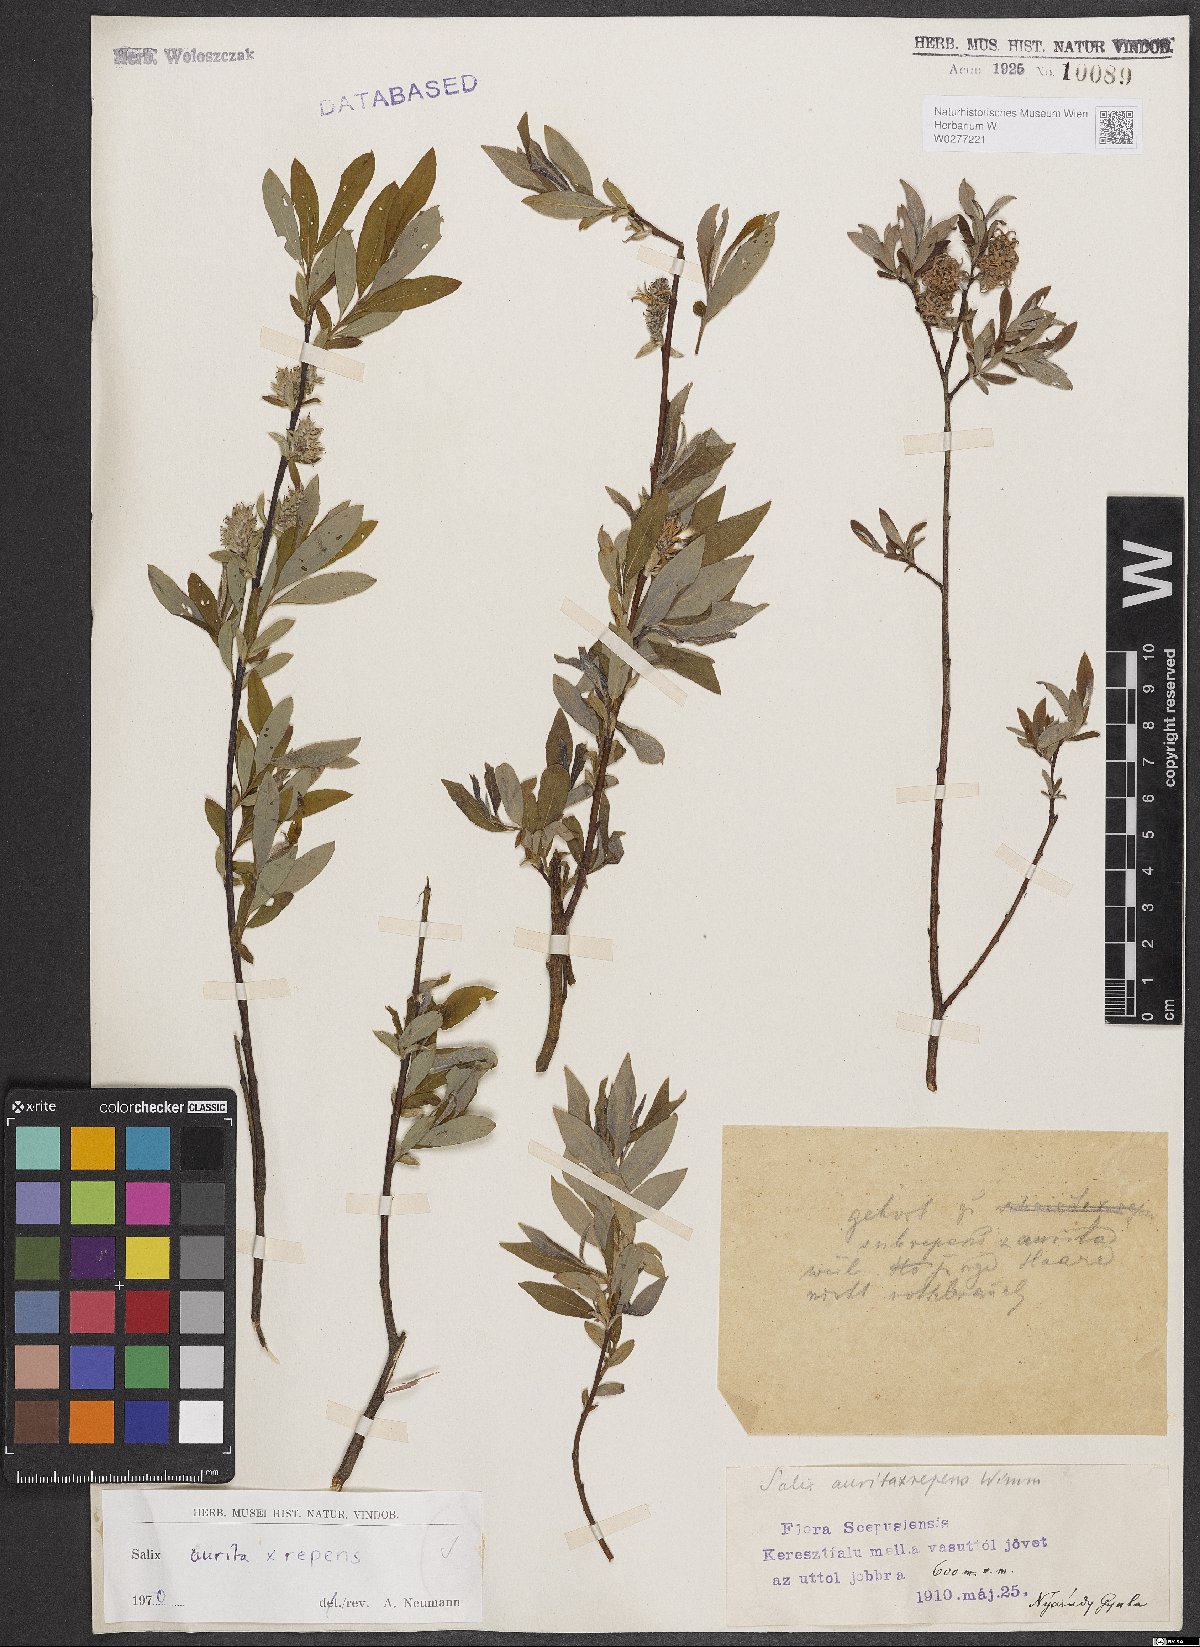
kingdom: Plantae
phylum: Tracheophyta
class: Magnoliopsida
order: Malpighiales
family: Salicaceae
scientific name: Salicaceae
